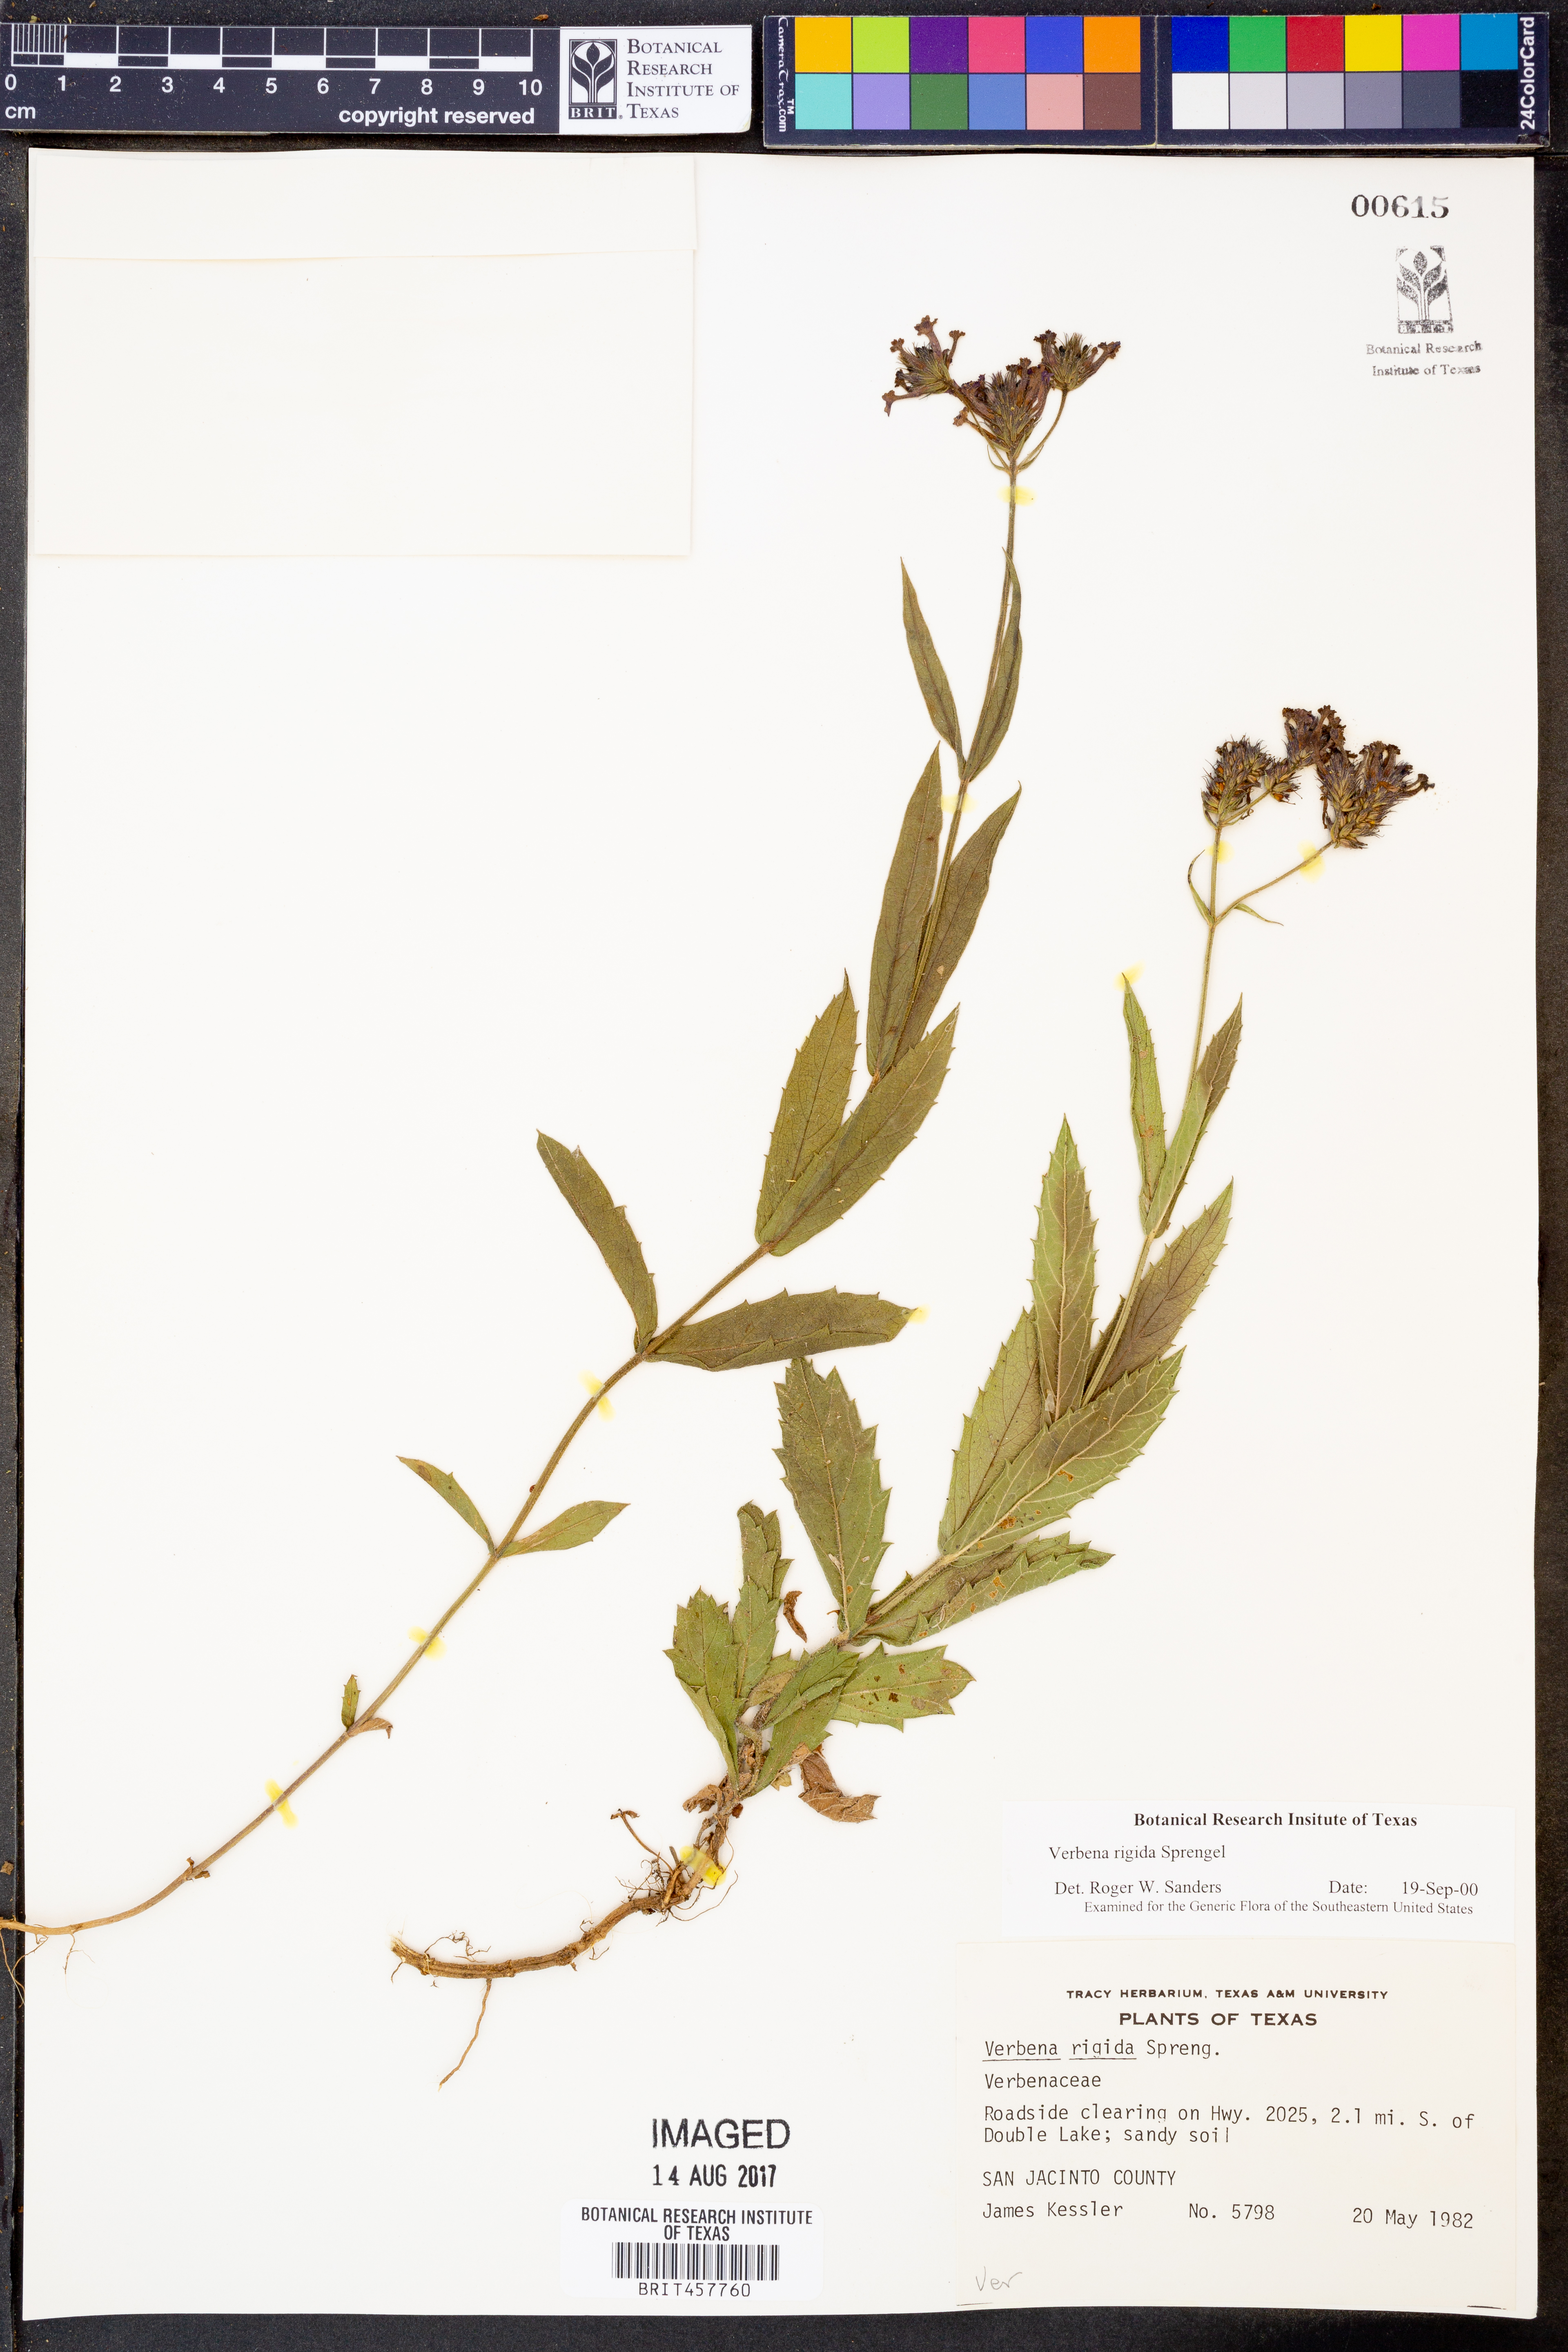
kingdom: Plantae
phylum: Tracheophyta
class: Magnoliopsida
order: Lamiales
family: Verbenaceae
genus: Verbena
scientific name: Verbena rigida
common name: Slender vervain
